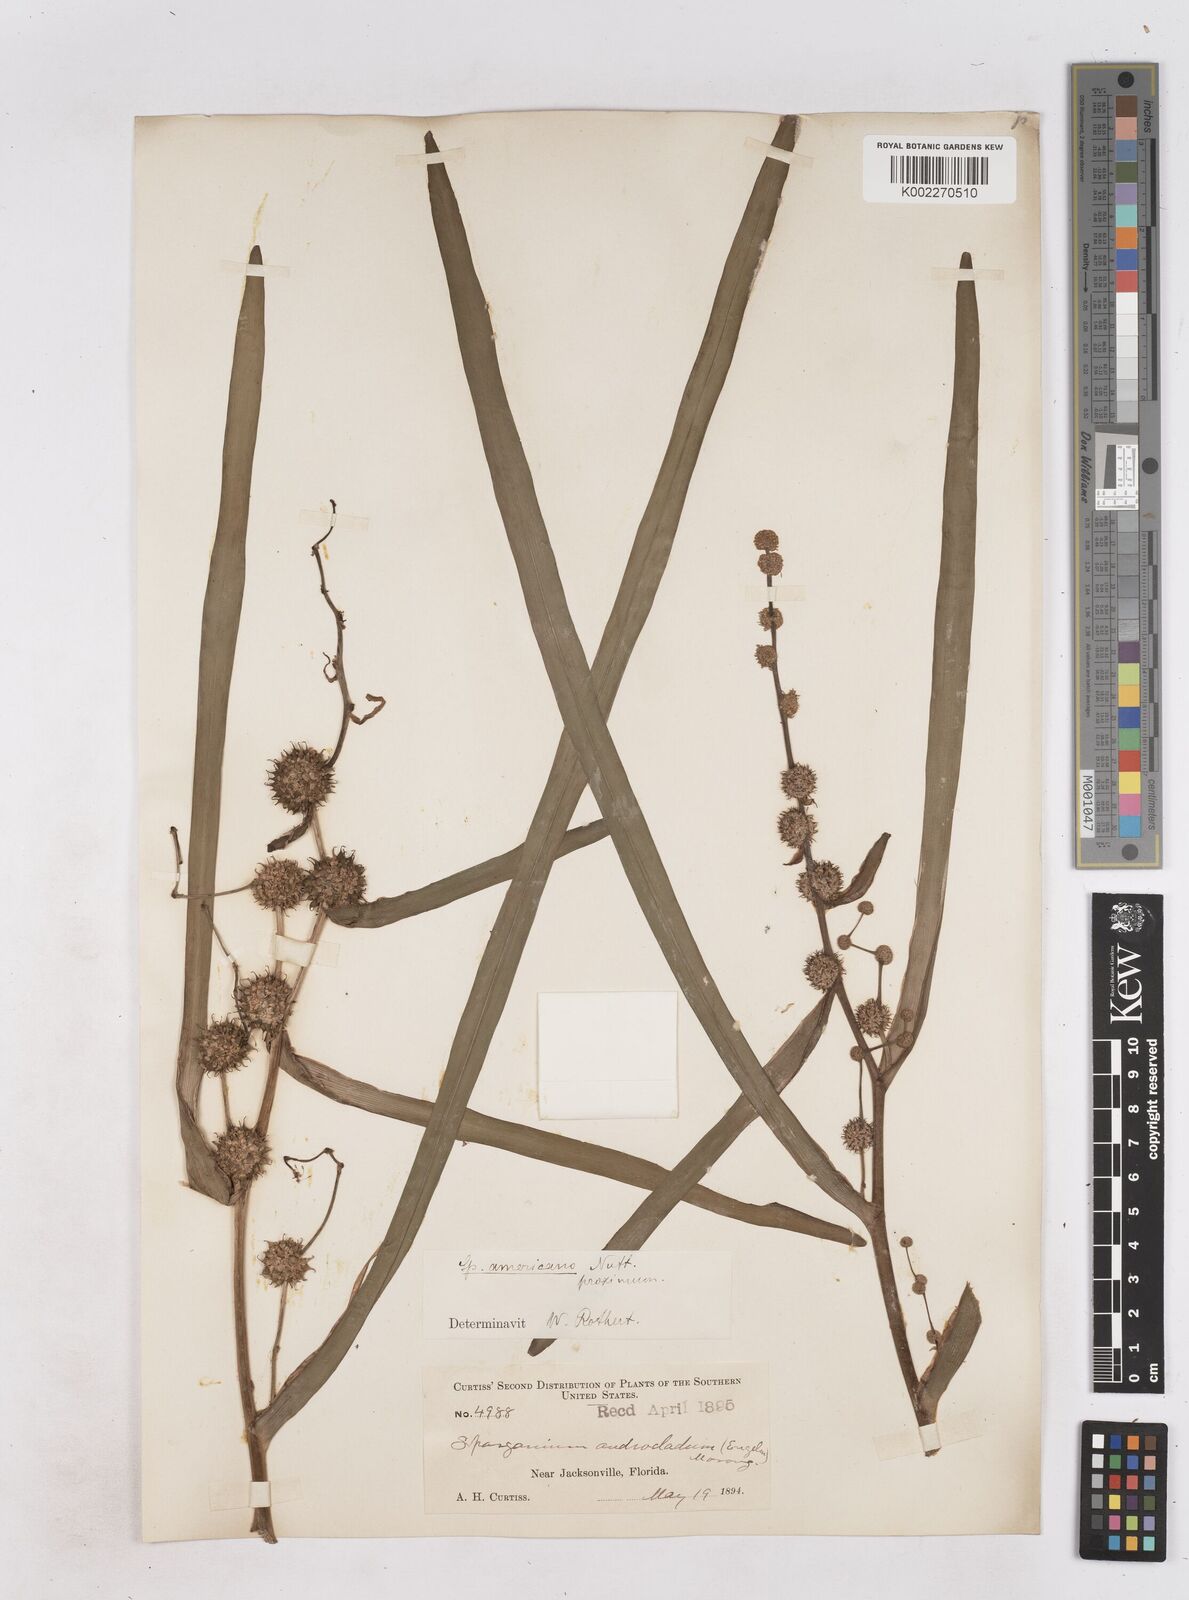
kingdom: Plantae
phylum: Tracheophyta
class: Liliopsida
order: Poales
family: Typhaceae
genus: Sparganium
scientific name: Sparganium americanum
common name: American burreed
